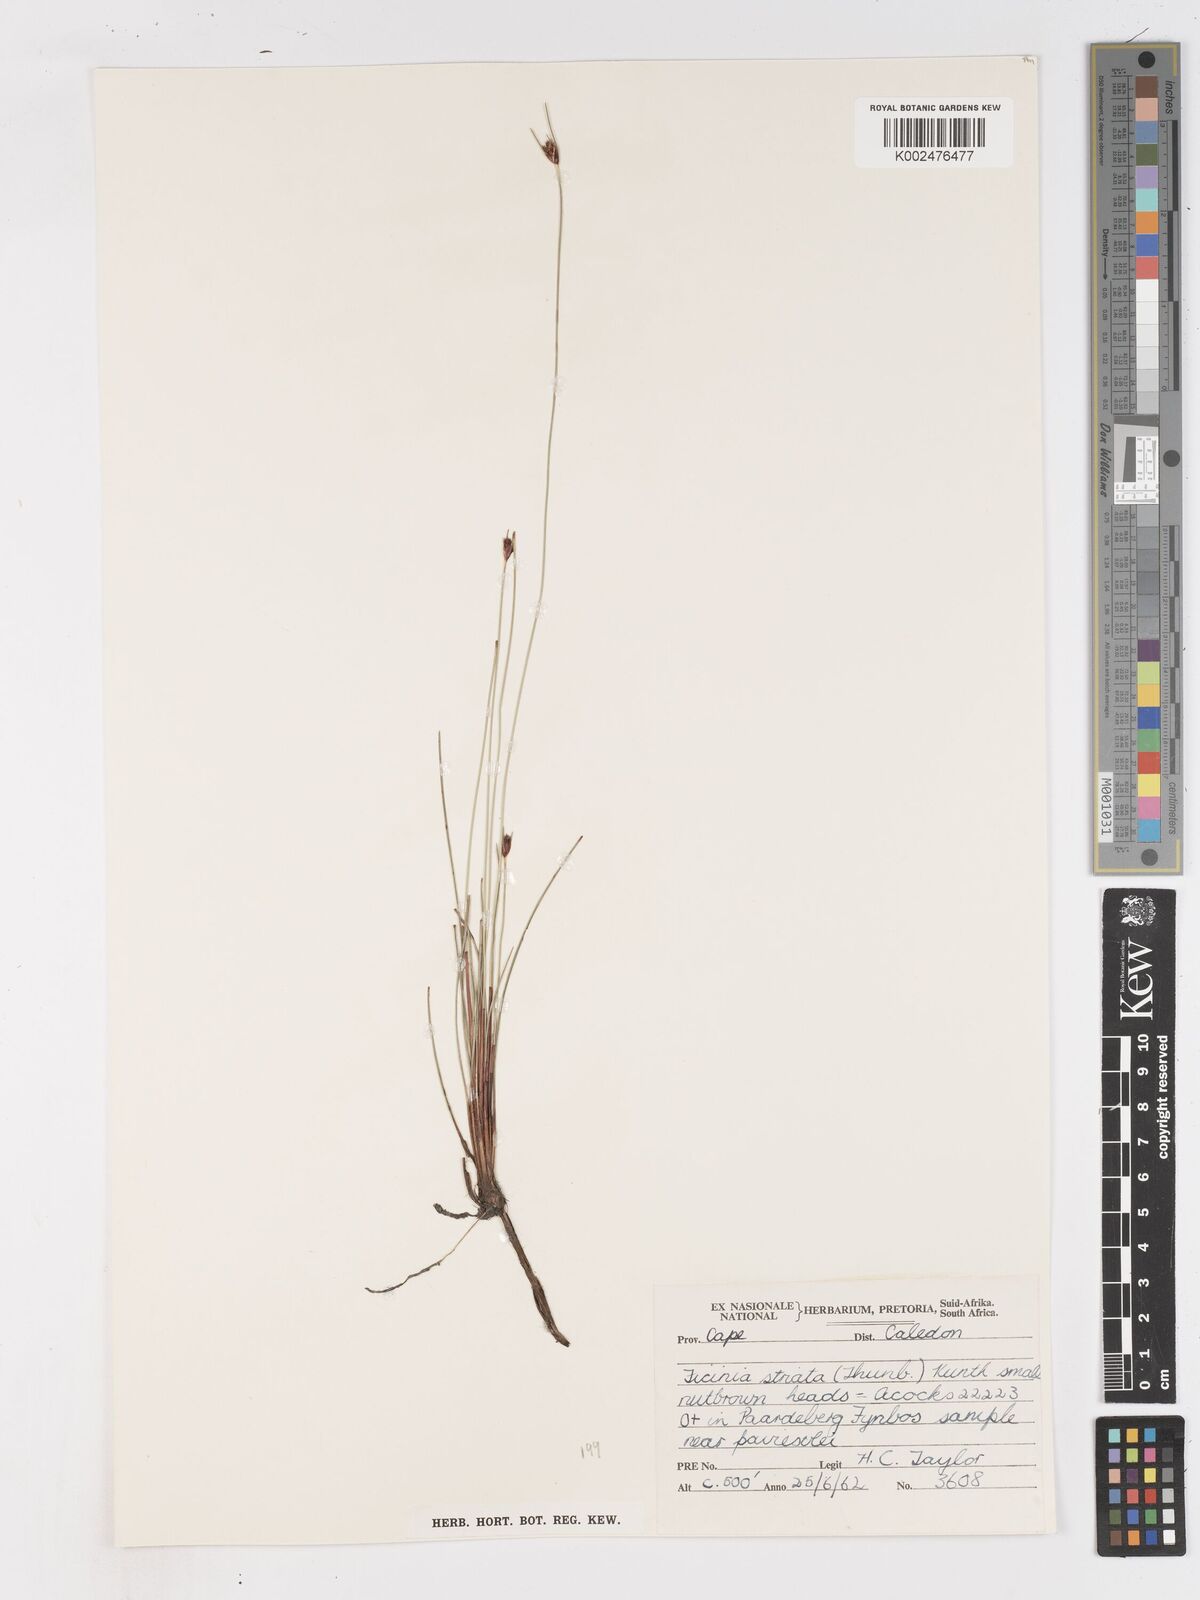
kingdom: Plantae
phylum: Tracheophyta
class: Liliopsida
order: Poales
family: Cyperaceae
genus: Ficinia
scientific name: Ficinia indica
